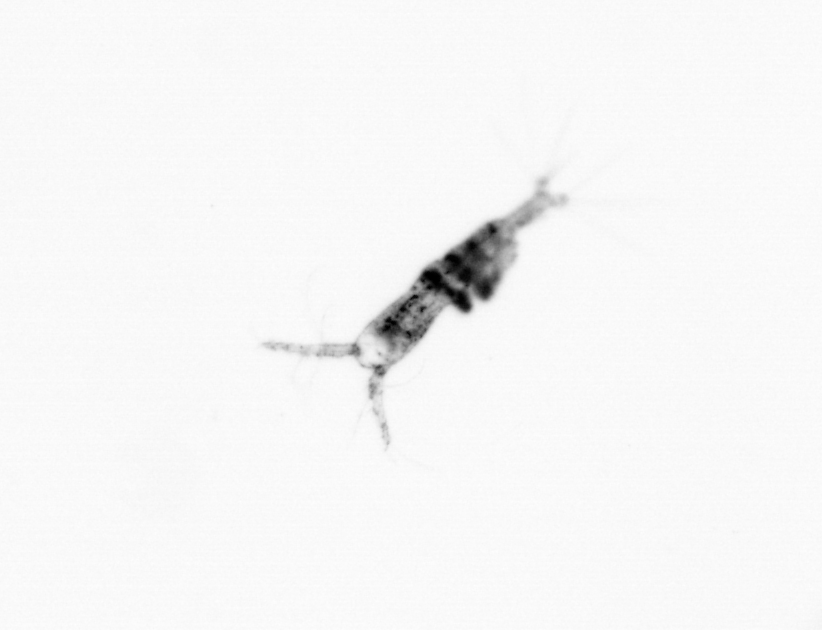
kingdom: Animalia
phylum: Arthropoda
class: Copepoda
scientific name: Copepoda
